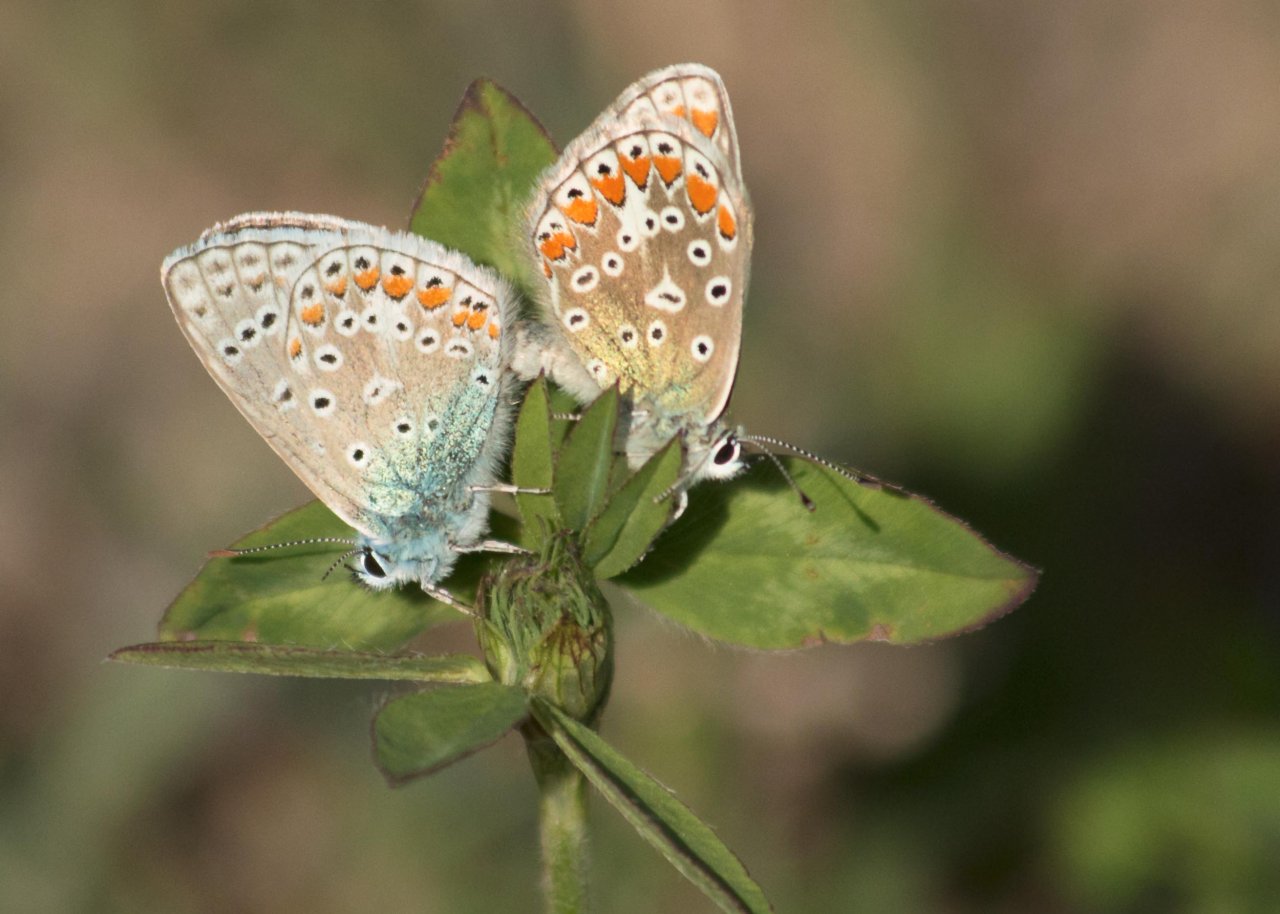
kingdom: Animalia
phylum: Arthropoda
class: Insecta
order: Lepidoptera
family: Lycaenidae
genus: Polyommatus
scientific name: Polyommatus icarus
